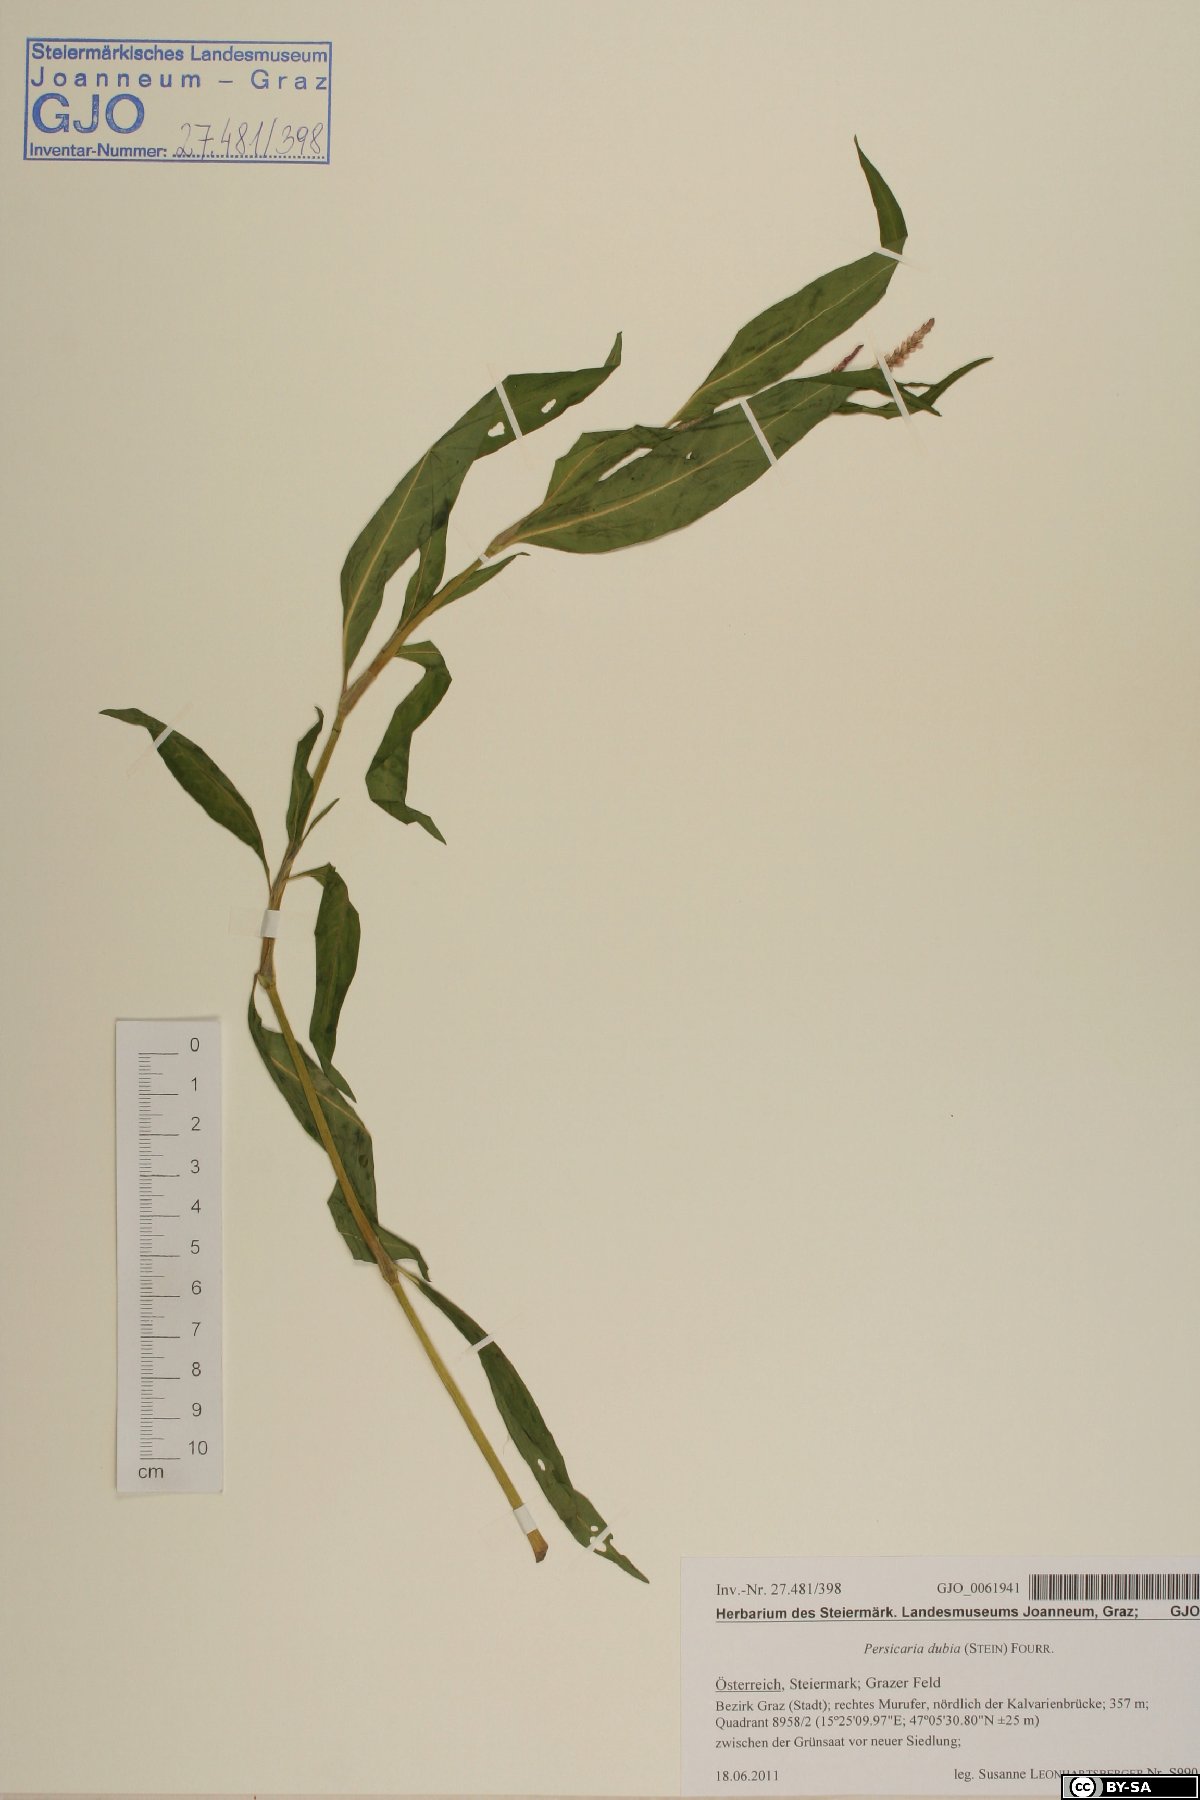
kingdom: Plantae
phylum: Tracheophyta
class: Magnoliopsida
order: Caryophyllales
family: Polygonaceae
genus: Persicaria
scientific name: Persicaria mitis
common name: Tasteless water-pepper
